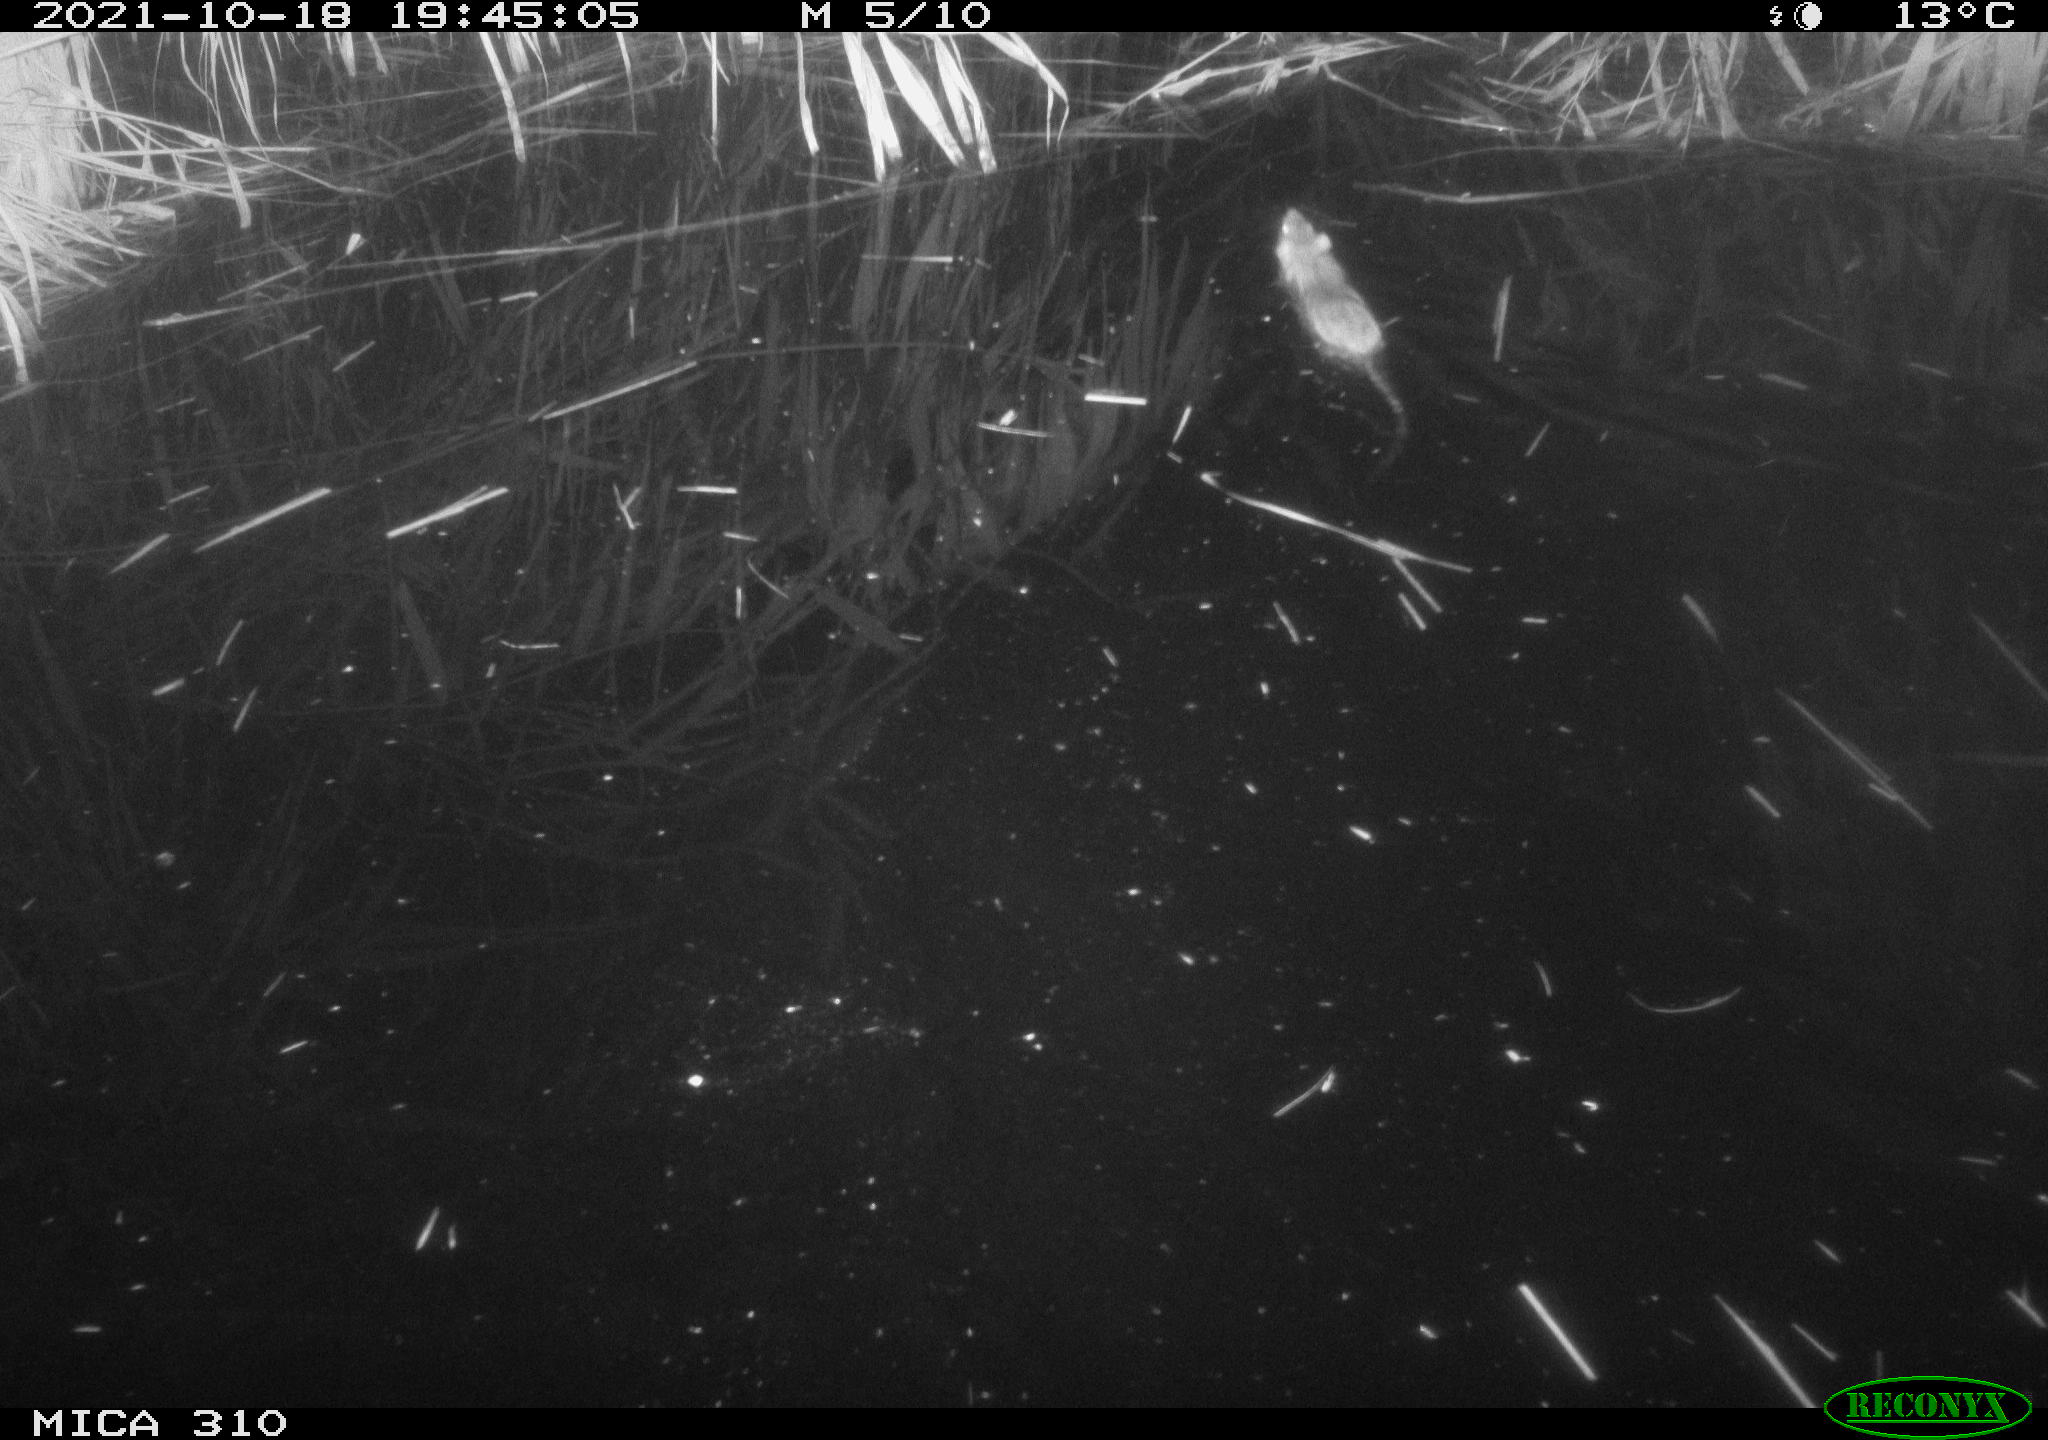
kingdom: Animalia
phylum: Chordata
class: Mammalia
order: Rodentia
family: Muridae
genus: Rattus
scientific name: Rattus norvegicus
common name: Brown rat
